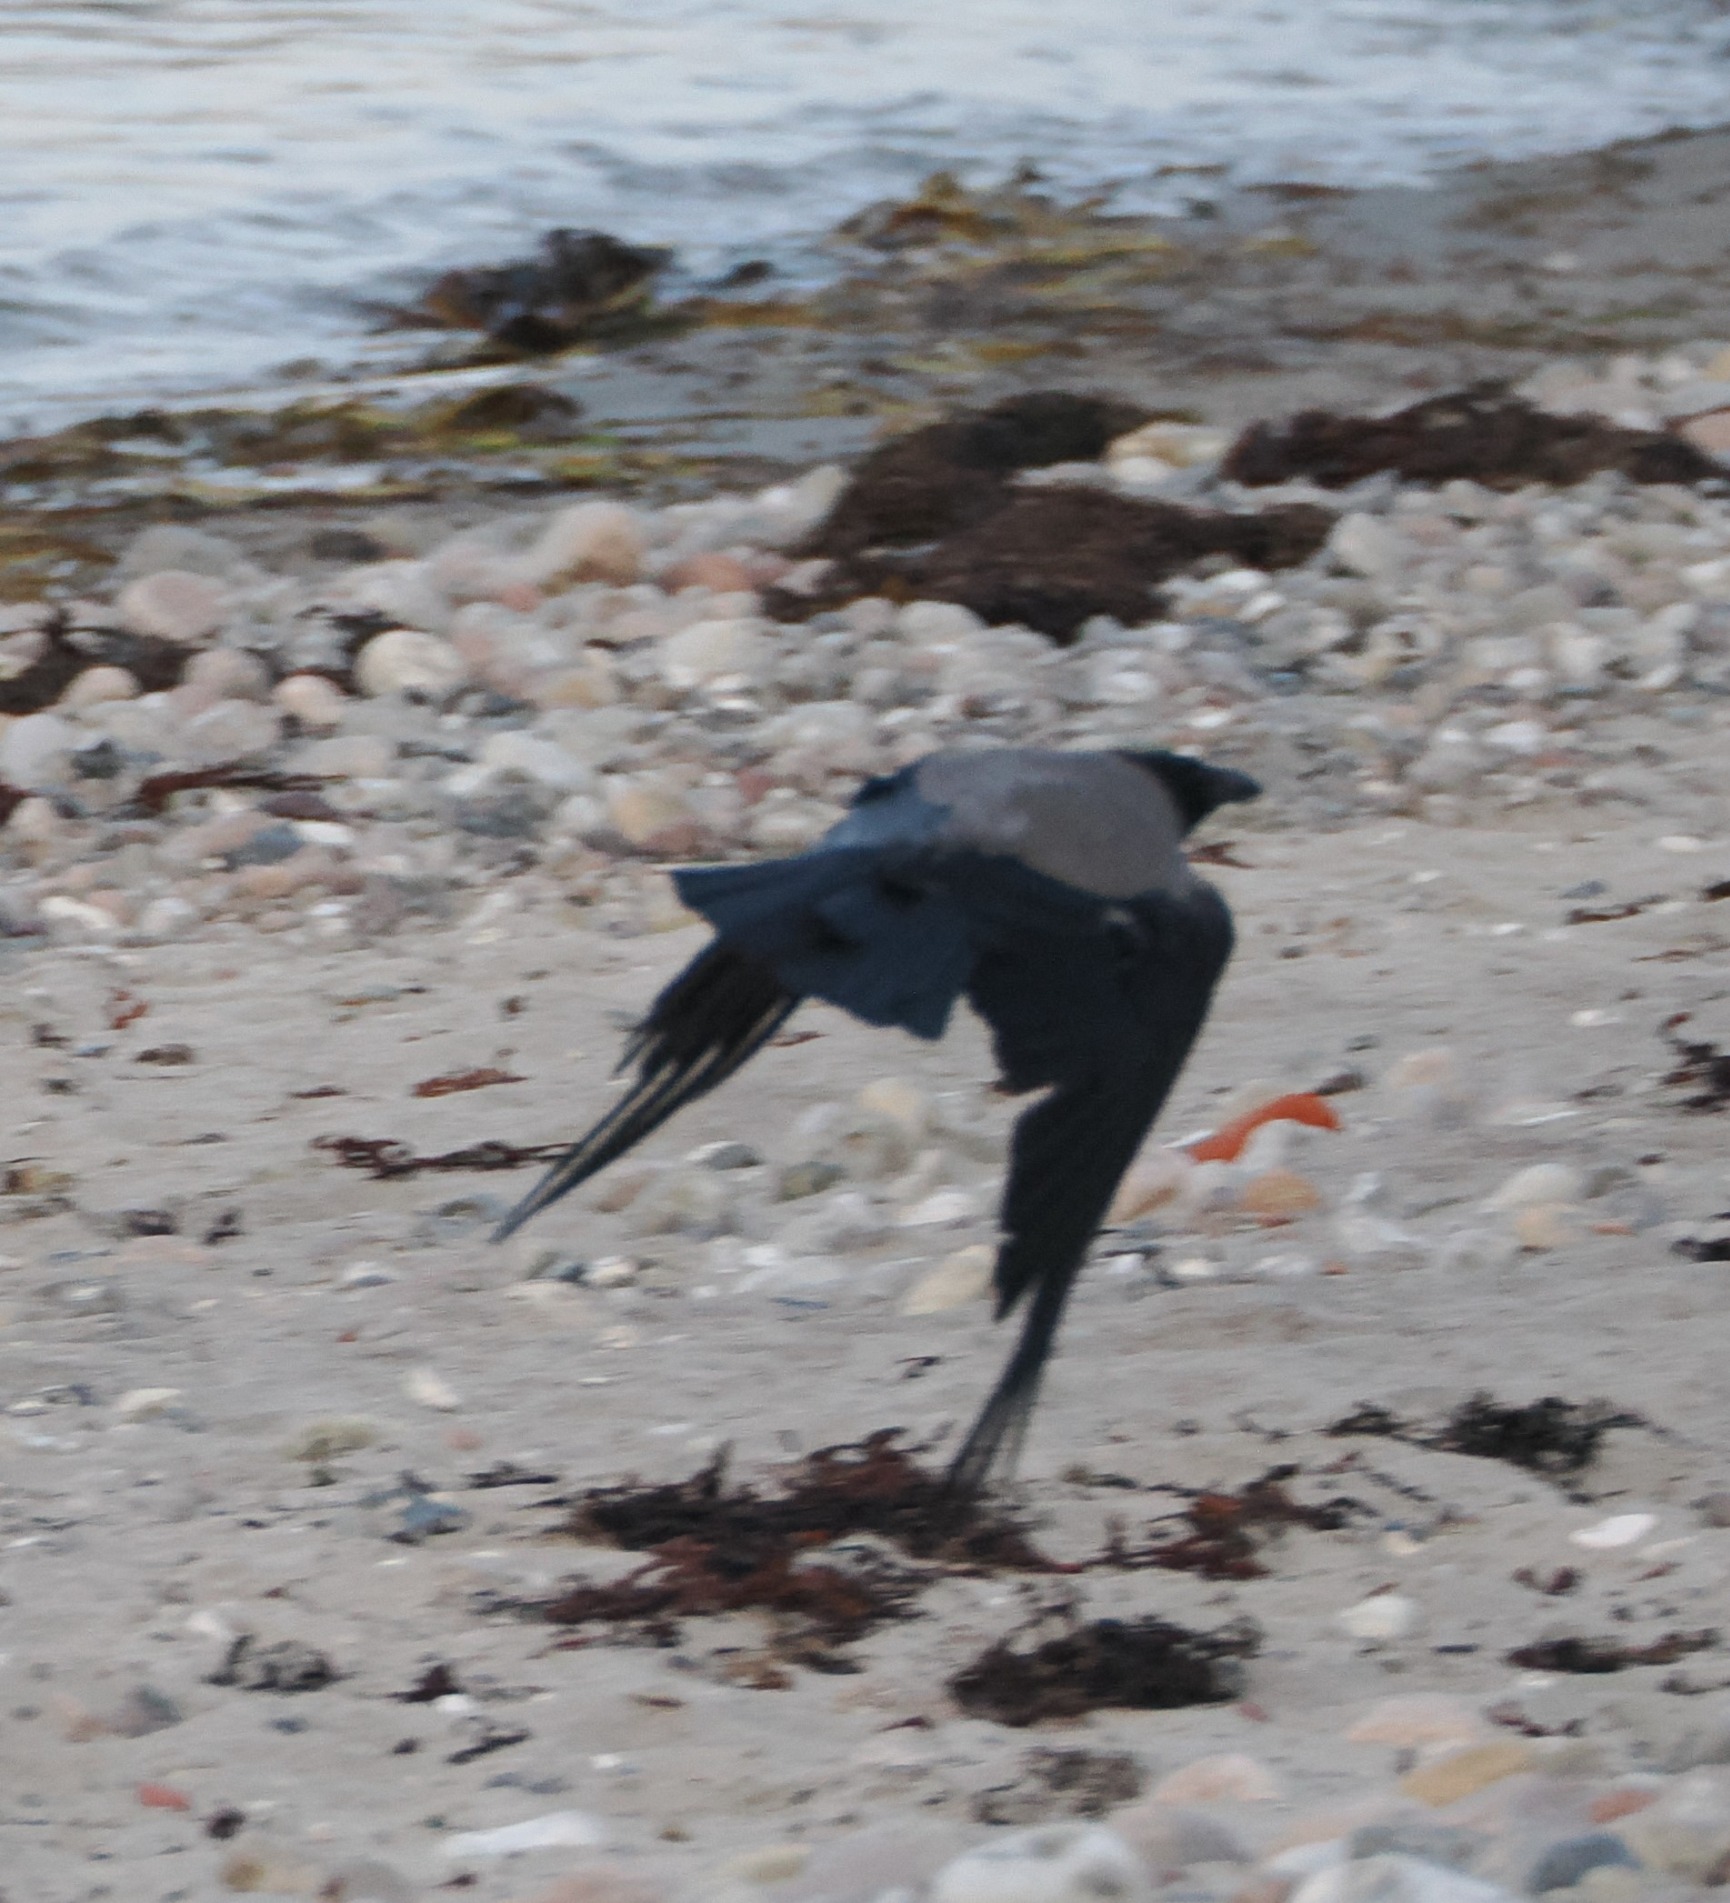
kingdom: Animalia
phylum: Chordata
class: Aves
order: Passeriformes
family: Corvidae
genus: Corvus
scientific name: Corvus cornix
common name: Gråkrage
